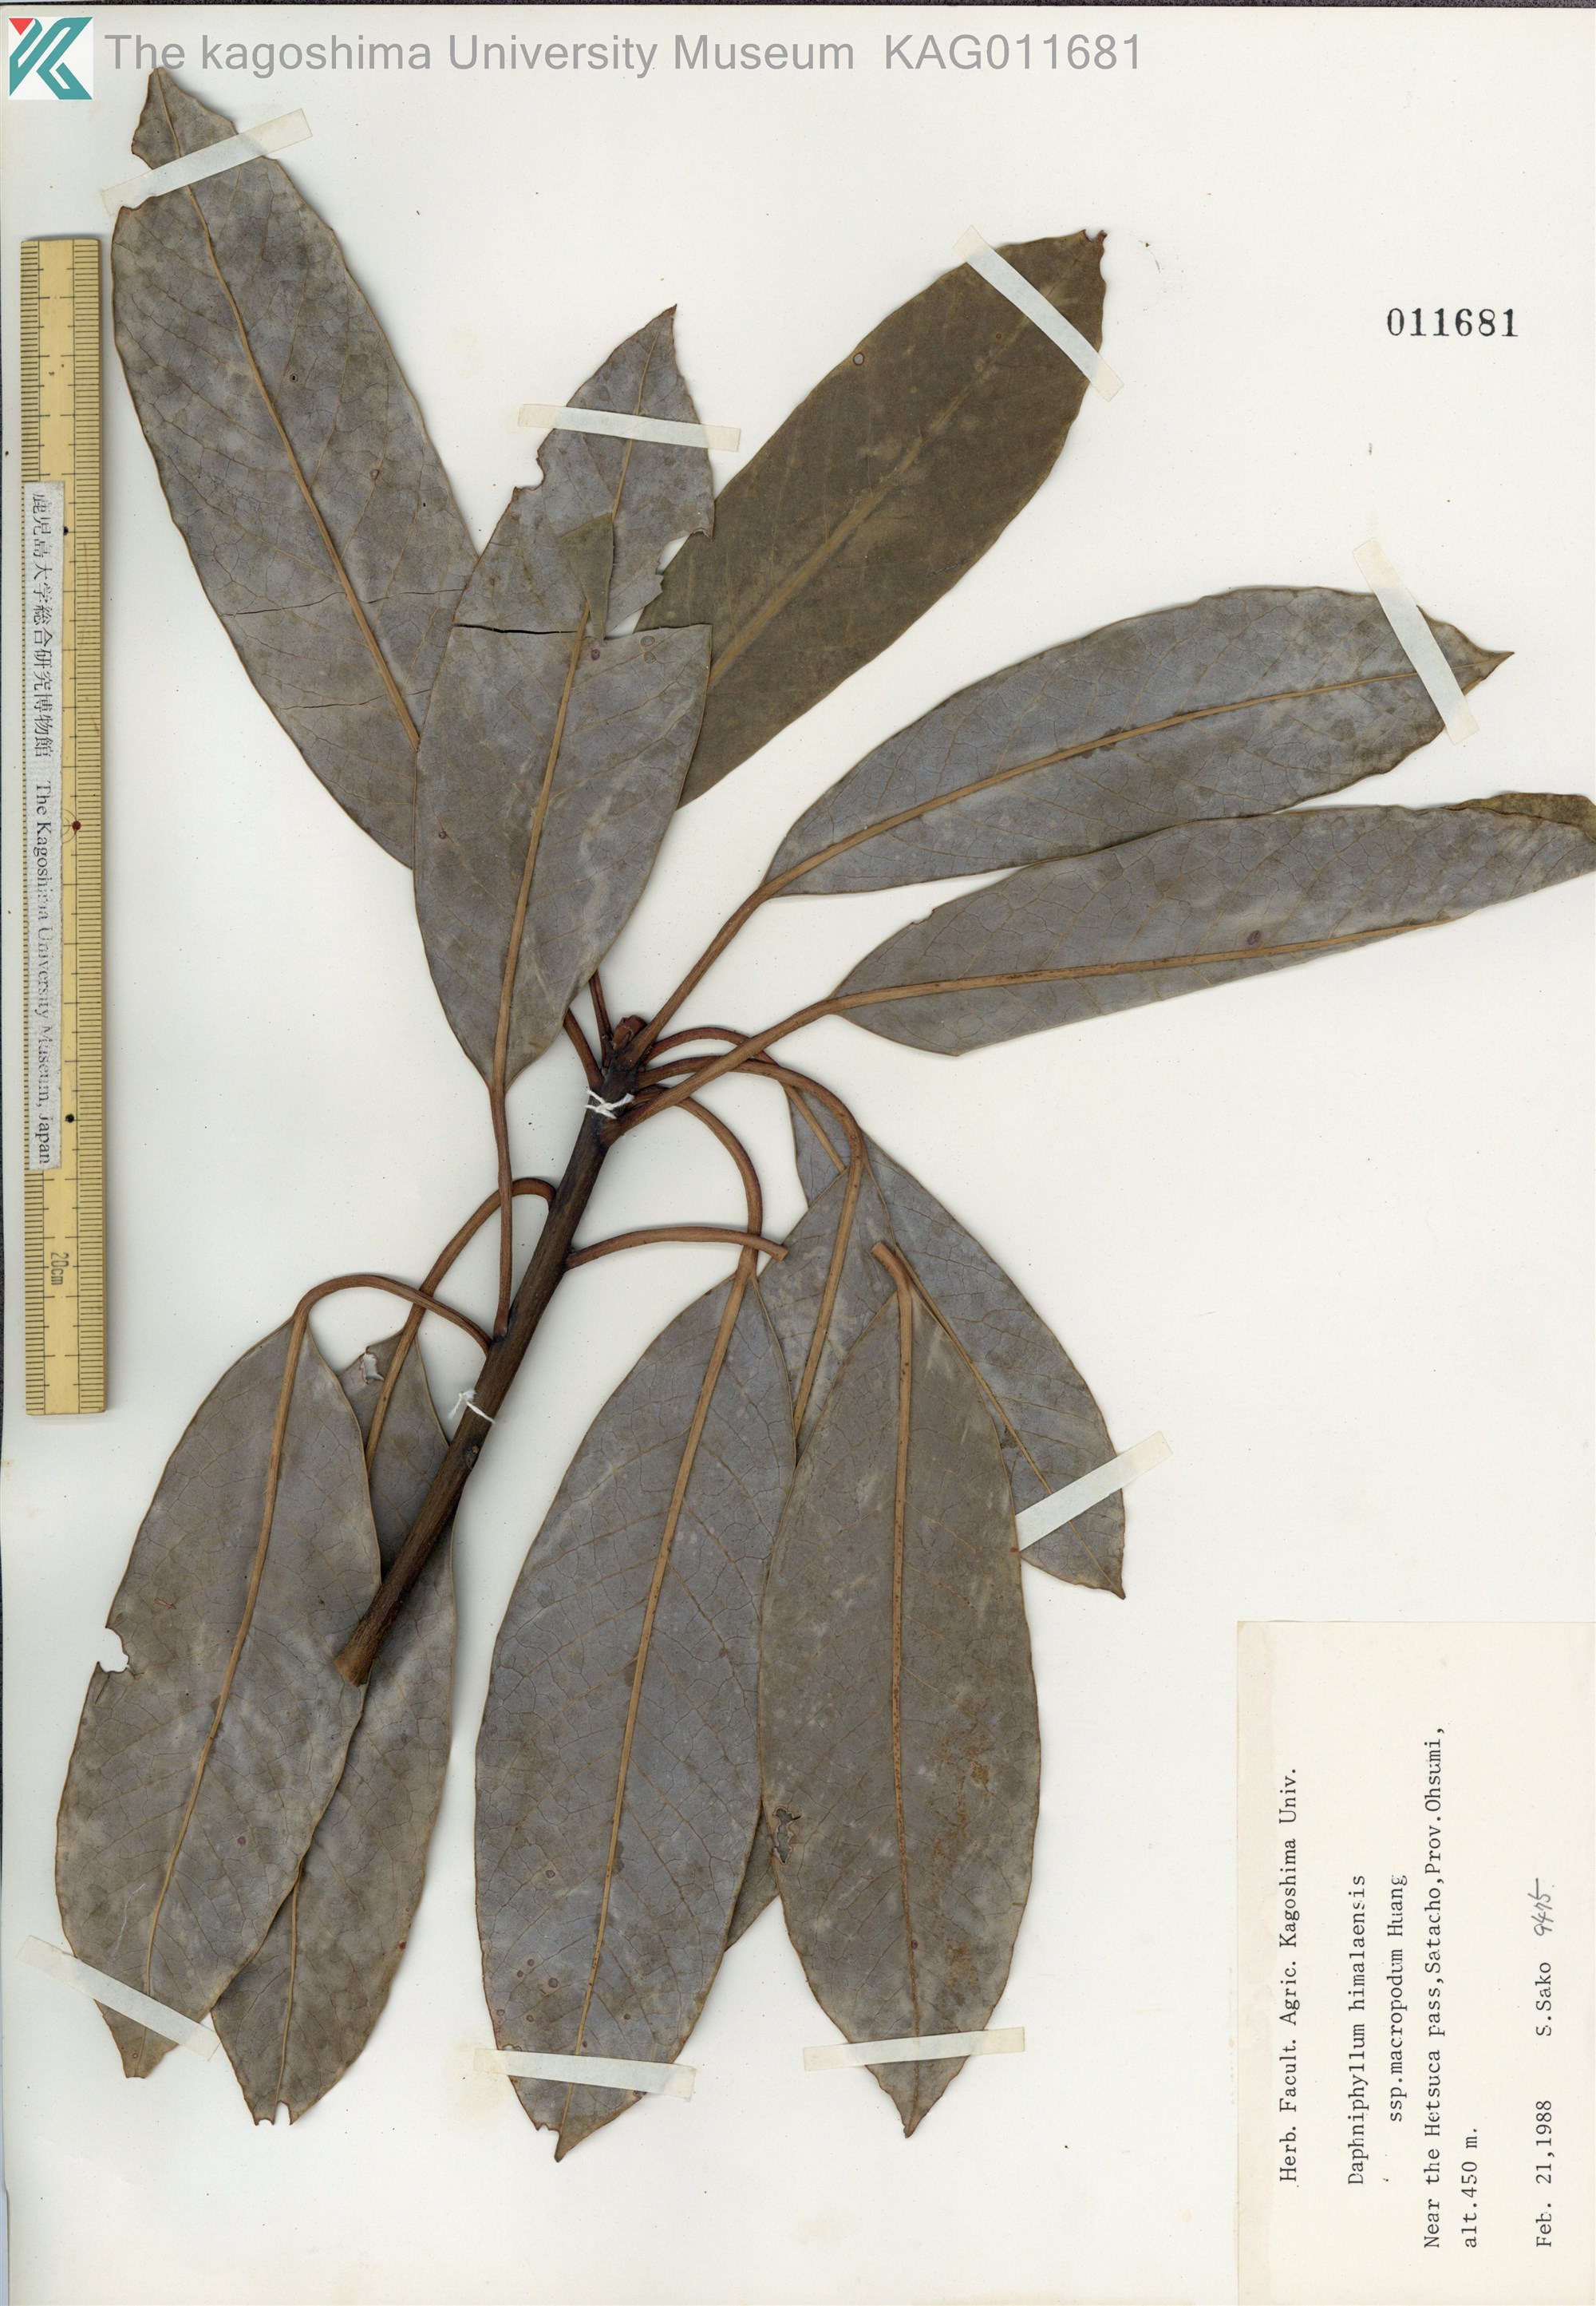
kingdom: Plantae
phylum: Tracheophyta
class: Magnoliopsida
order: Saxifragales
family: Daphniphyllaceae
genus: Daphniphyllum
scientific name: Daphniphyllum macropodum
